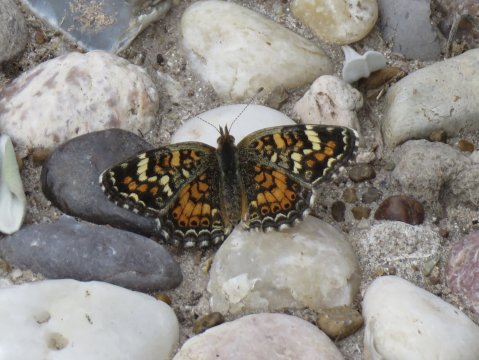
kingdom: Animalia
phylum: Arthropoda
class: Insecta
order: Lepidoptera
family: Nymphalidae
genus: Phyciodes
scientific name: Phyciodes phaon
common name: Phaon Crescent
